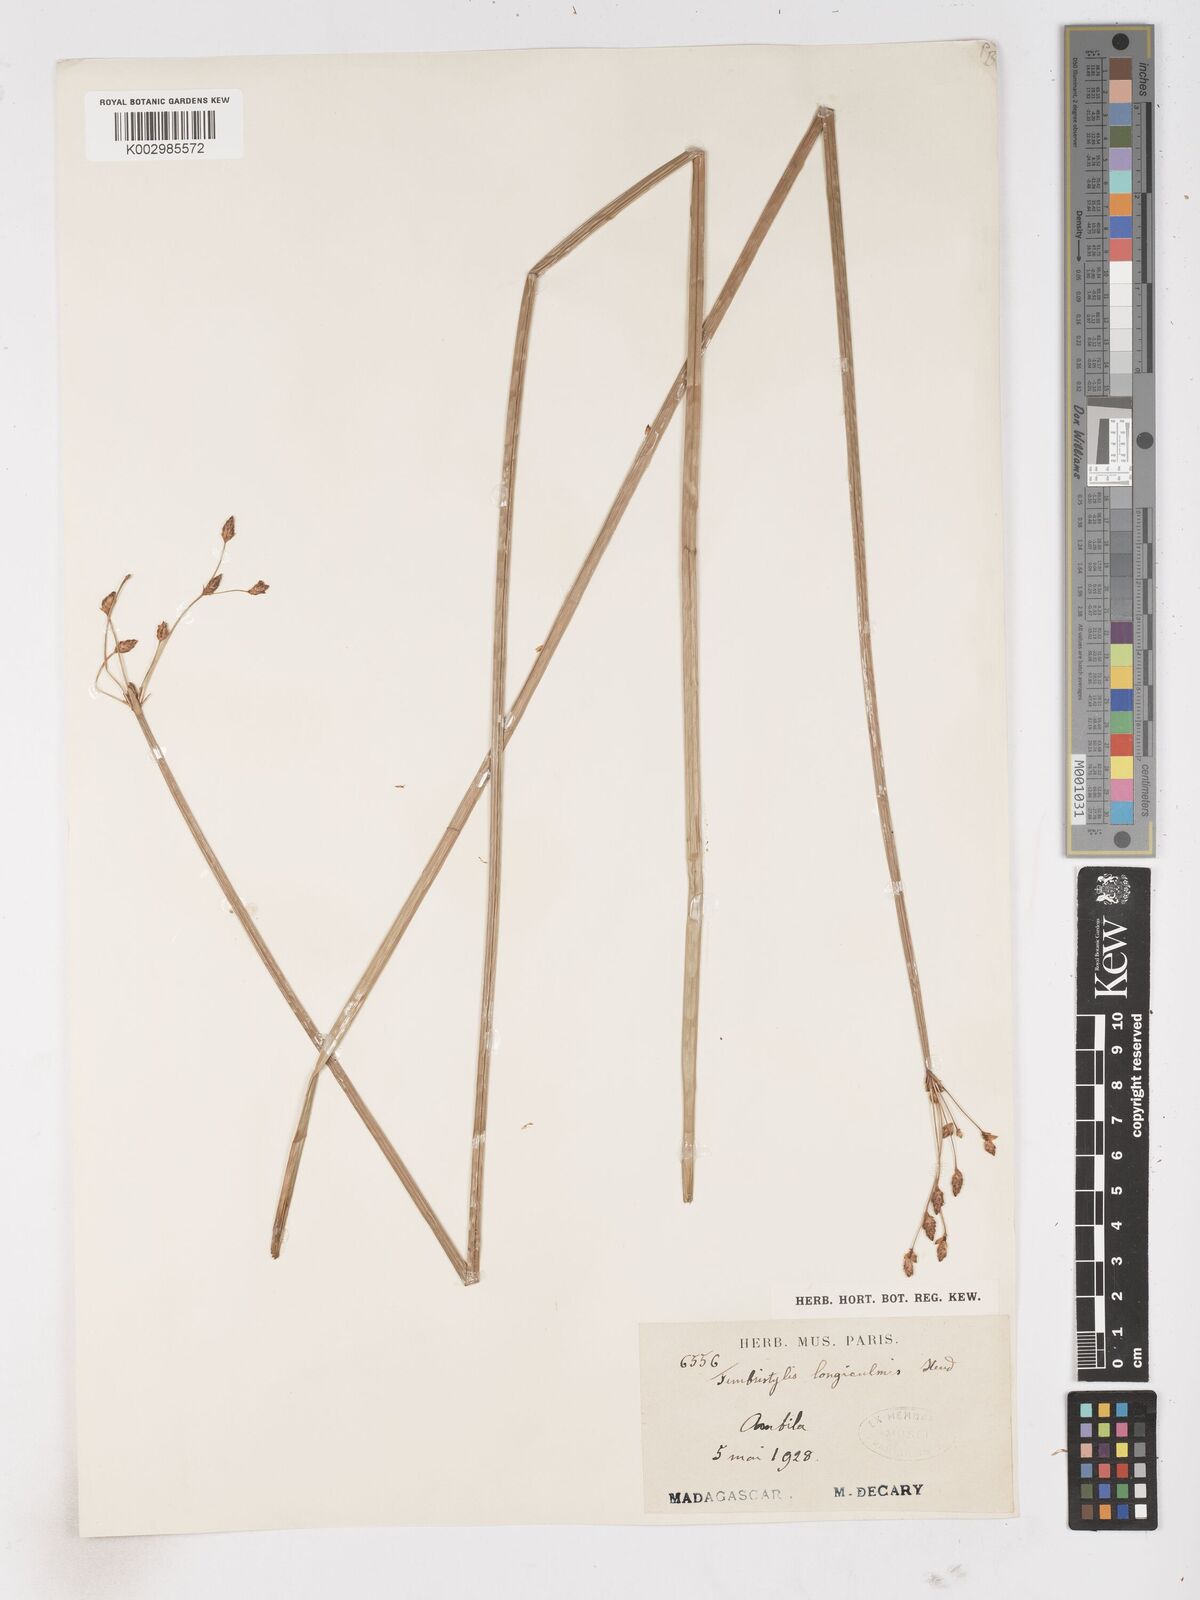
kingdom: Plantae
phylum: Tracheophyta
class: Liliopsida
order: Poales
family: Cyperaceae
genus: Fimbristylis
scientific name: Fimbristylis bivalvis
